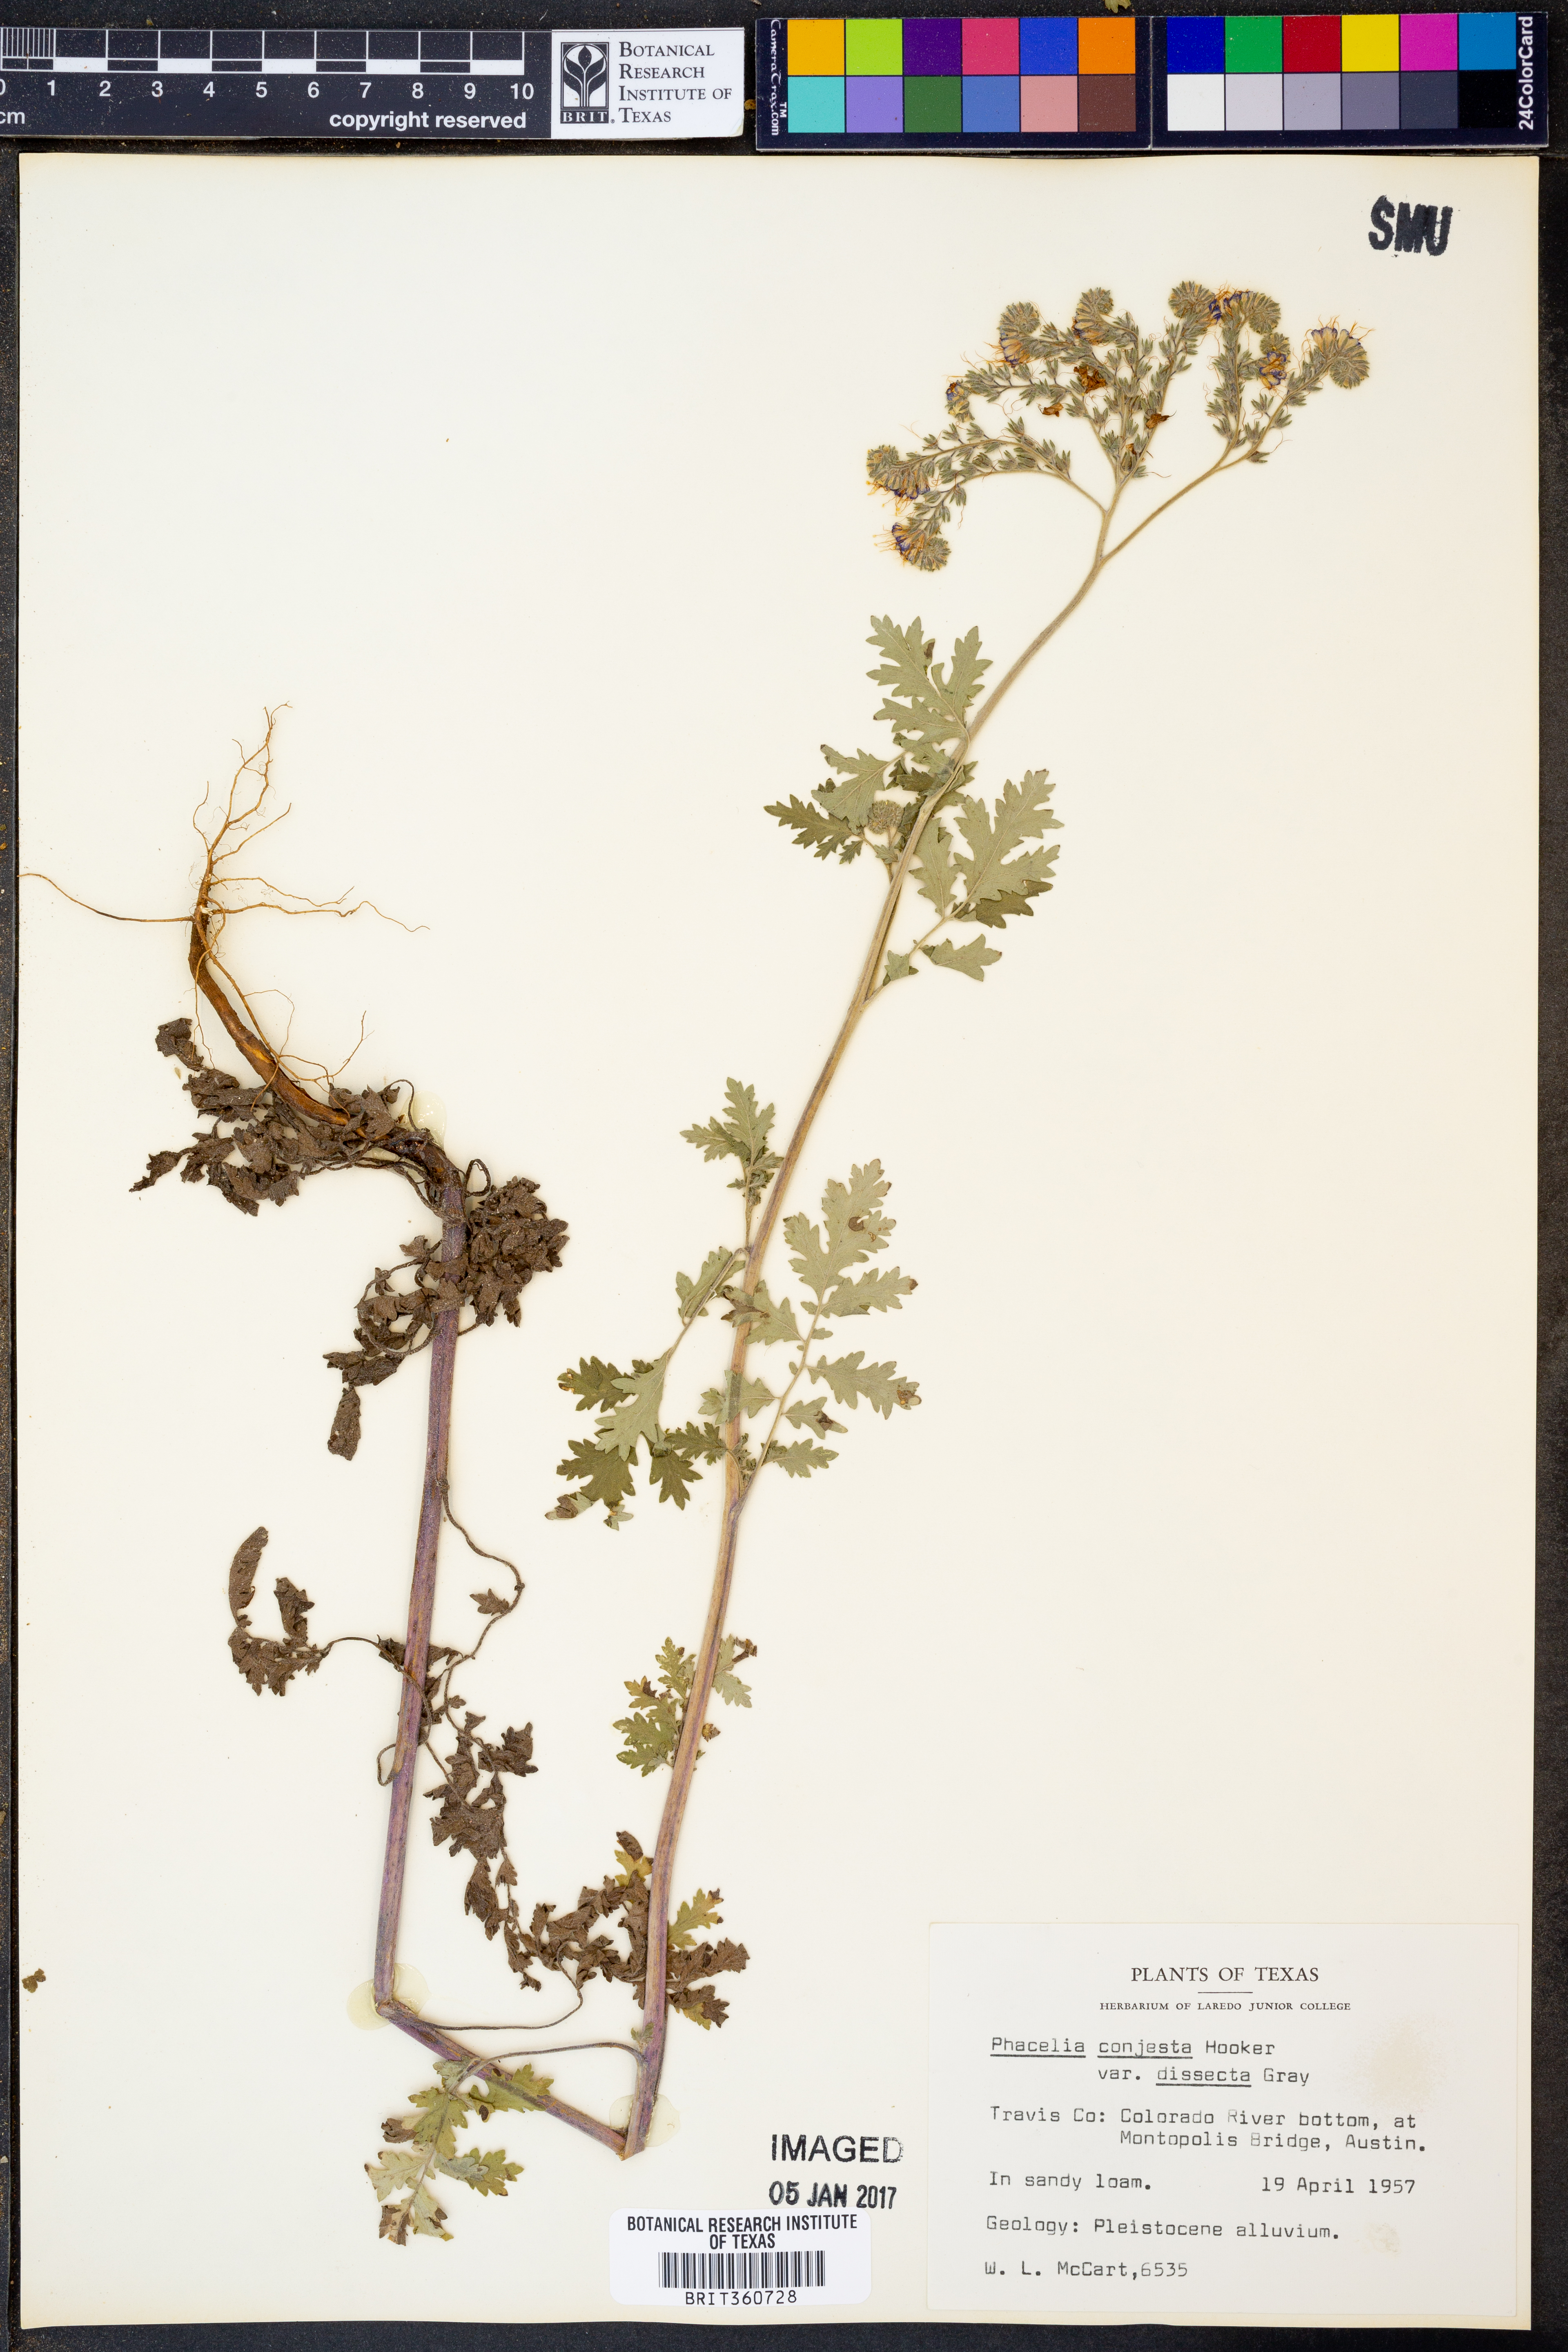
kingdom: Plantae
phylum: Tracheophyta
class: Magnoliopsida
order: Boraginales
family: Hydrophyllaceae
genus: Phacelia
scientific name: Phacelia congesta
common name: Blue curls
